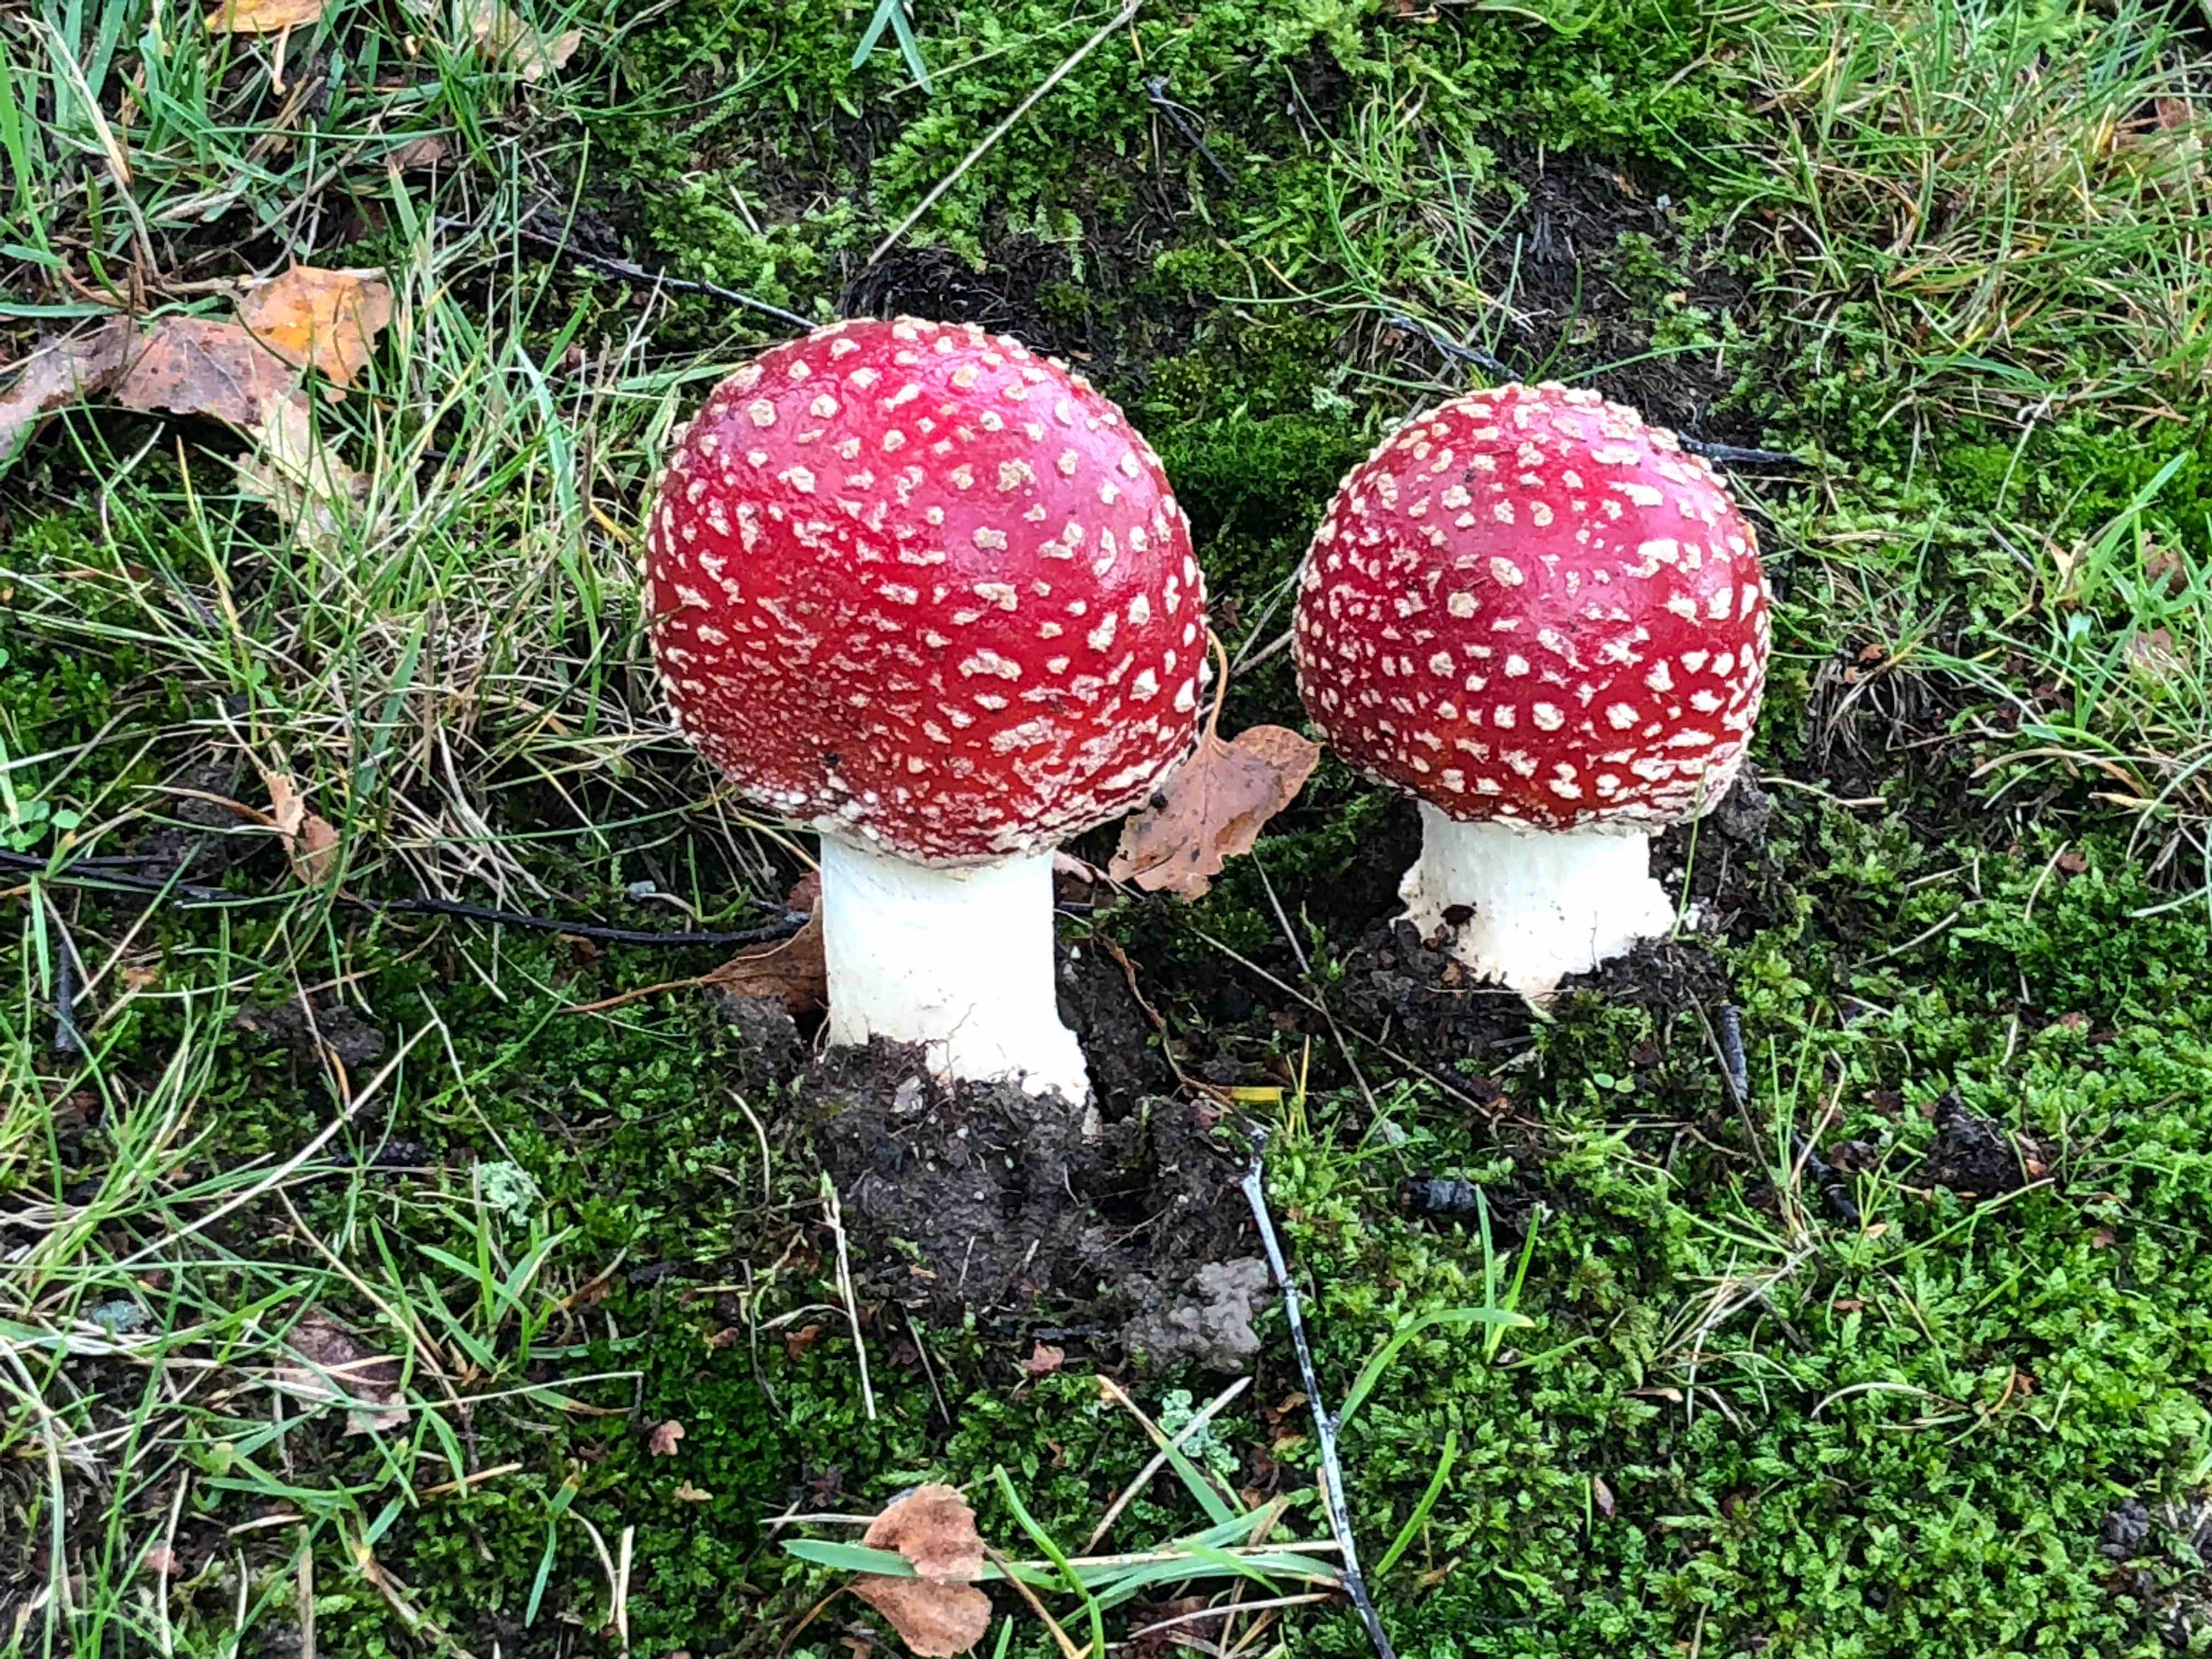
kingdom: Fungi
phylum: Basidiomycota
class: Agaricomycetes
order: Agaricales
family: Amanitaceae
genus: Amanita
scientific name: Amanita muscaria
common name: rød fluesvamp
